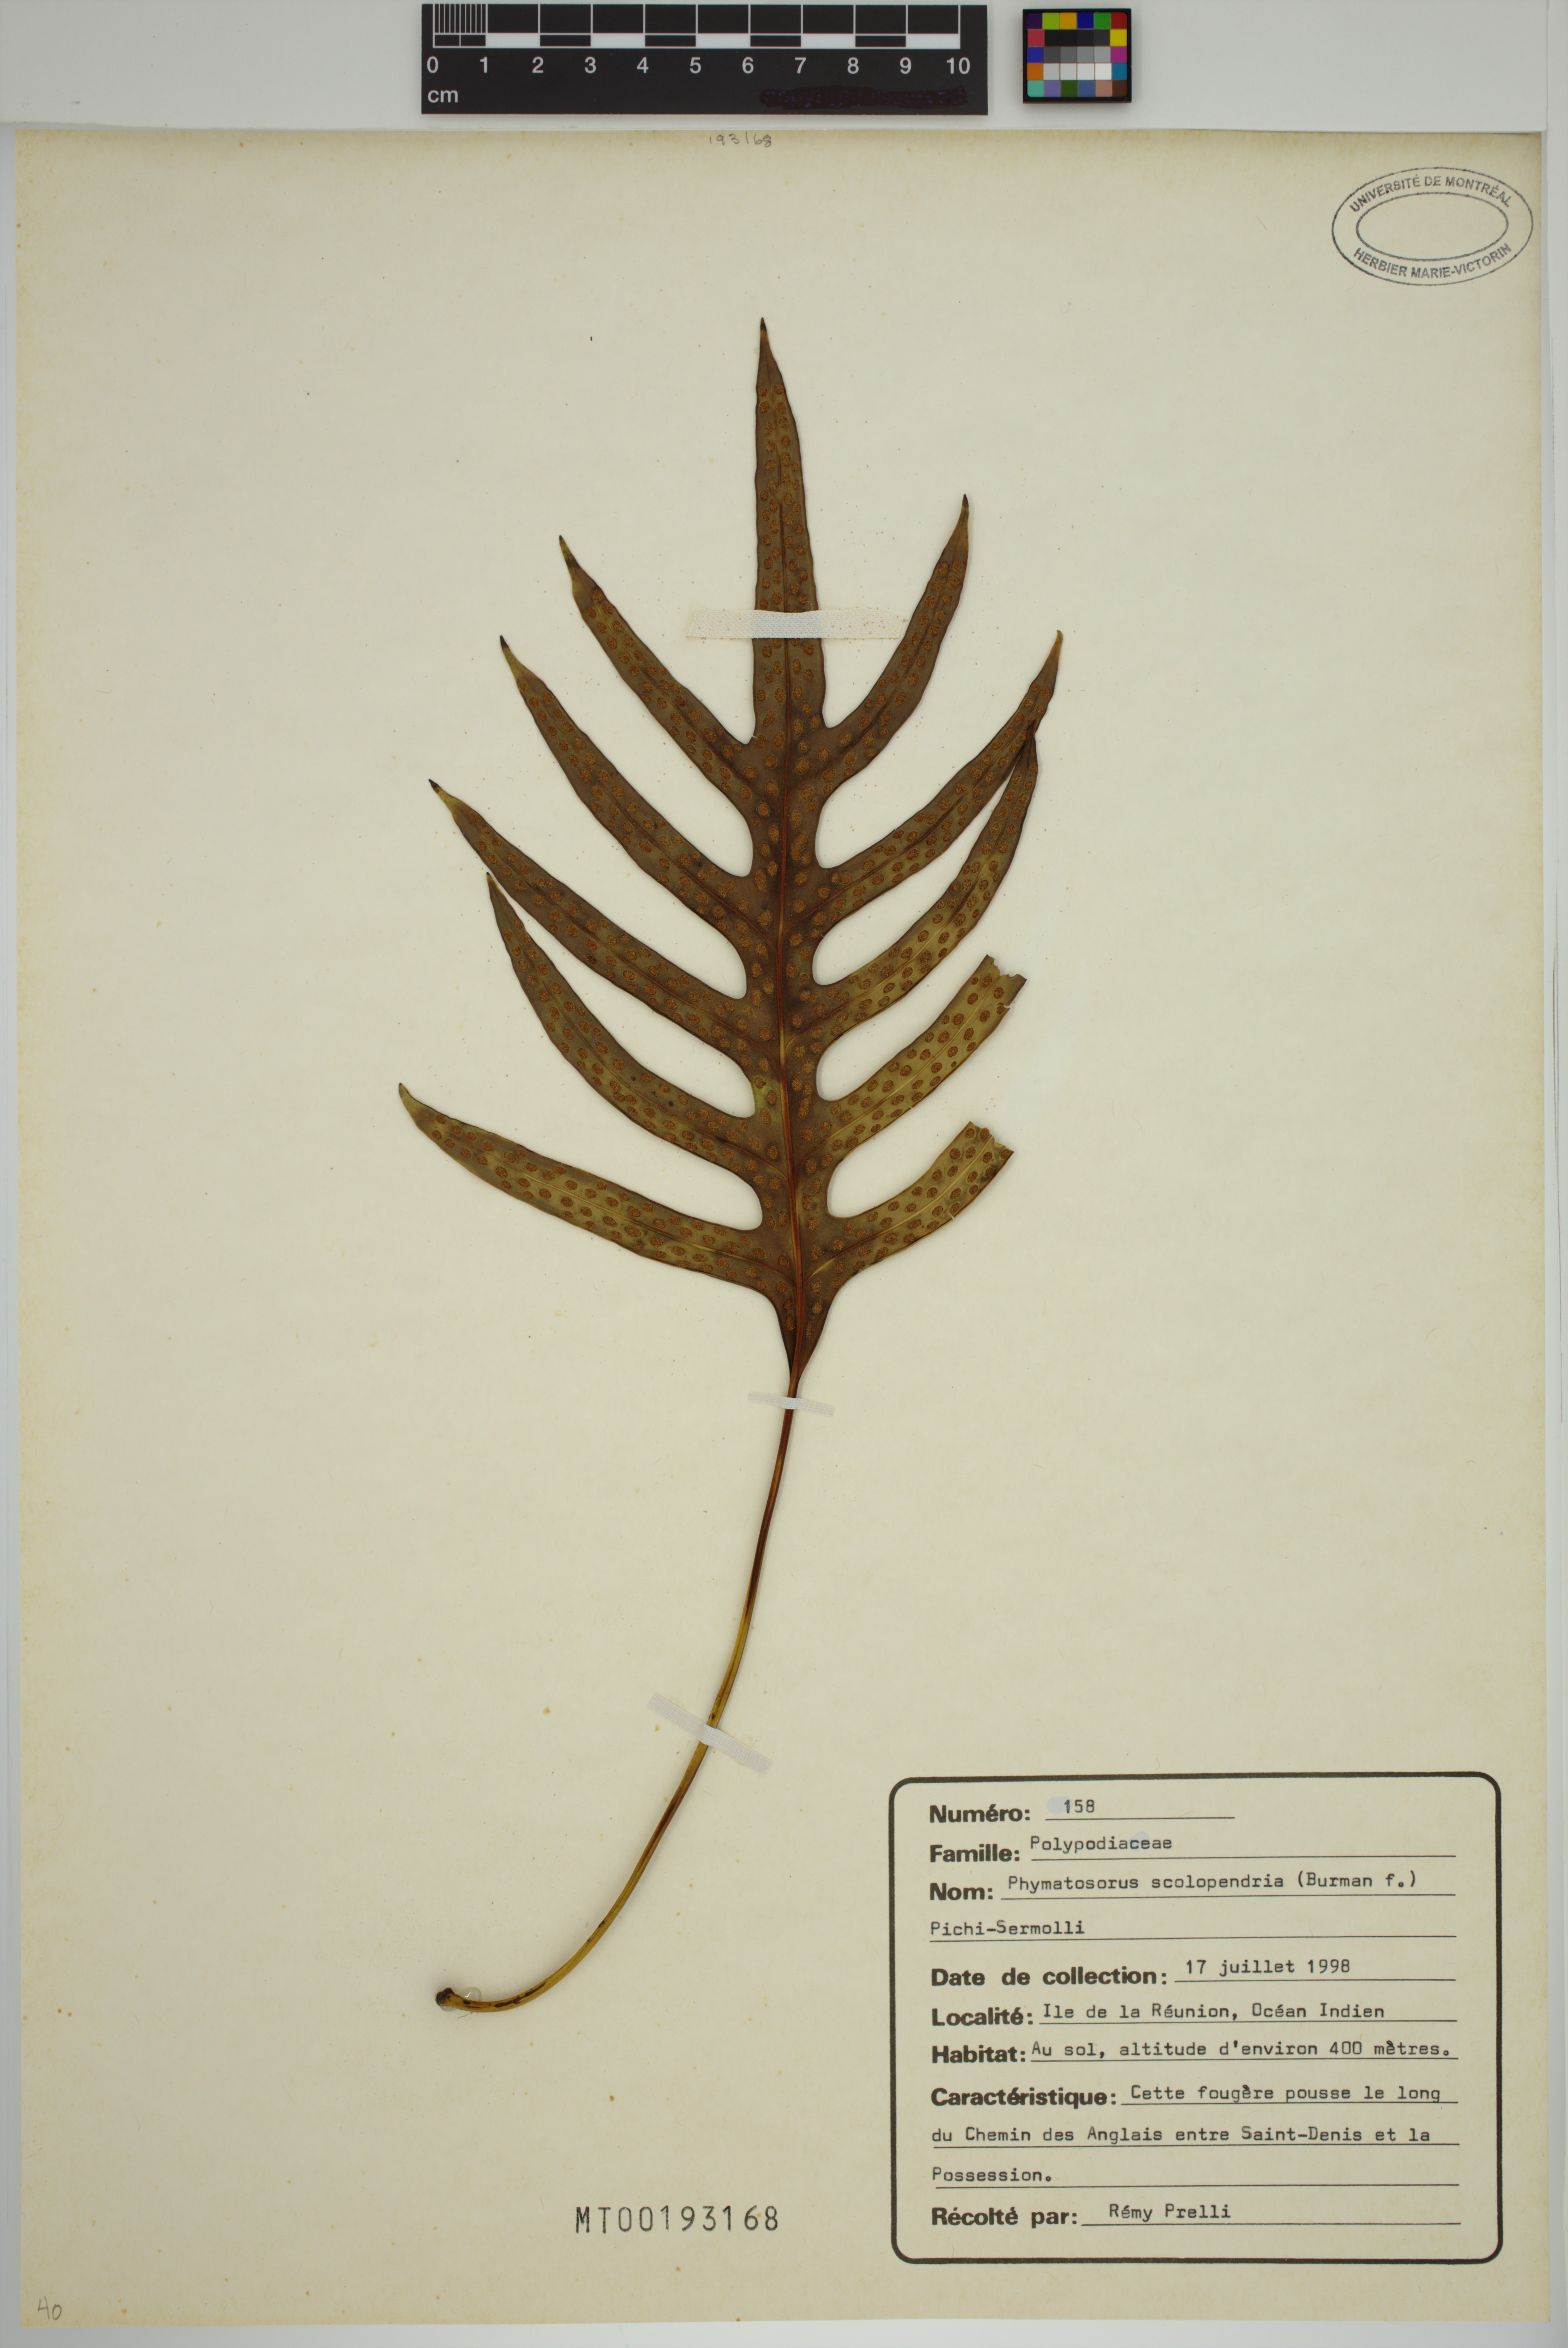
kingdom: Plantae
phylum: Tracheophyta
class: Polypodiopsida
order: Polypodiales
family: Polypodiaceae
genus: Microsorum
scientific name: Microsorum scolopendria
